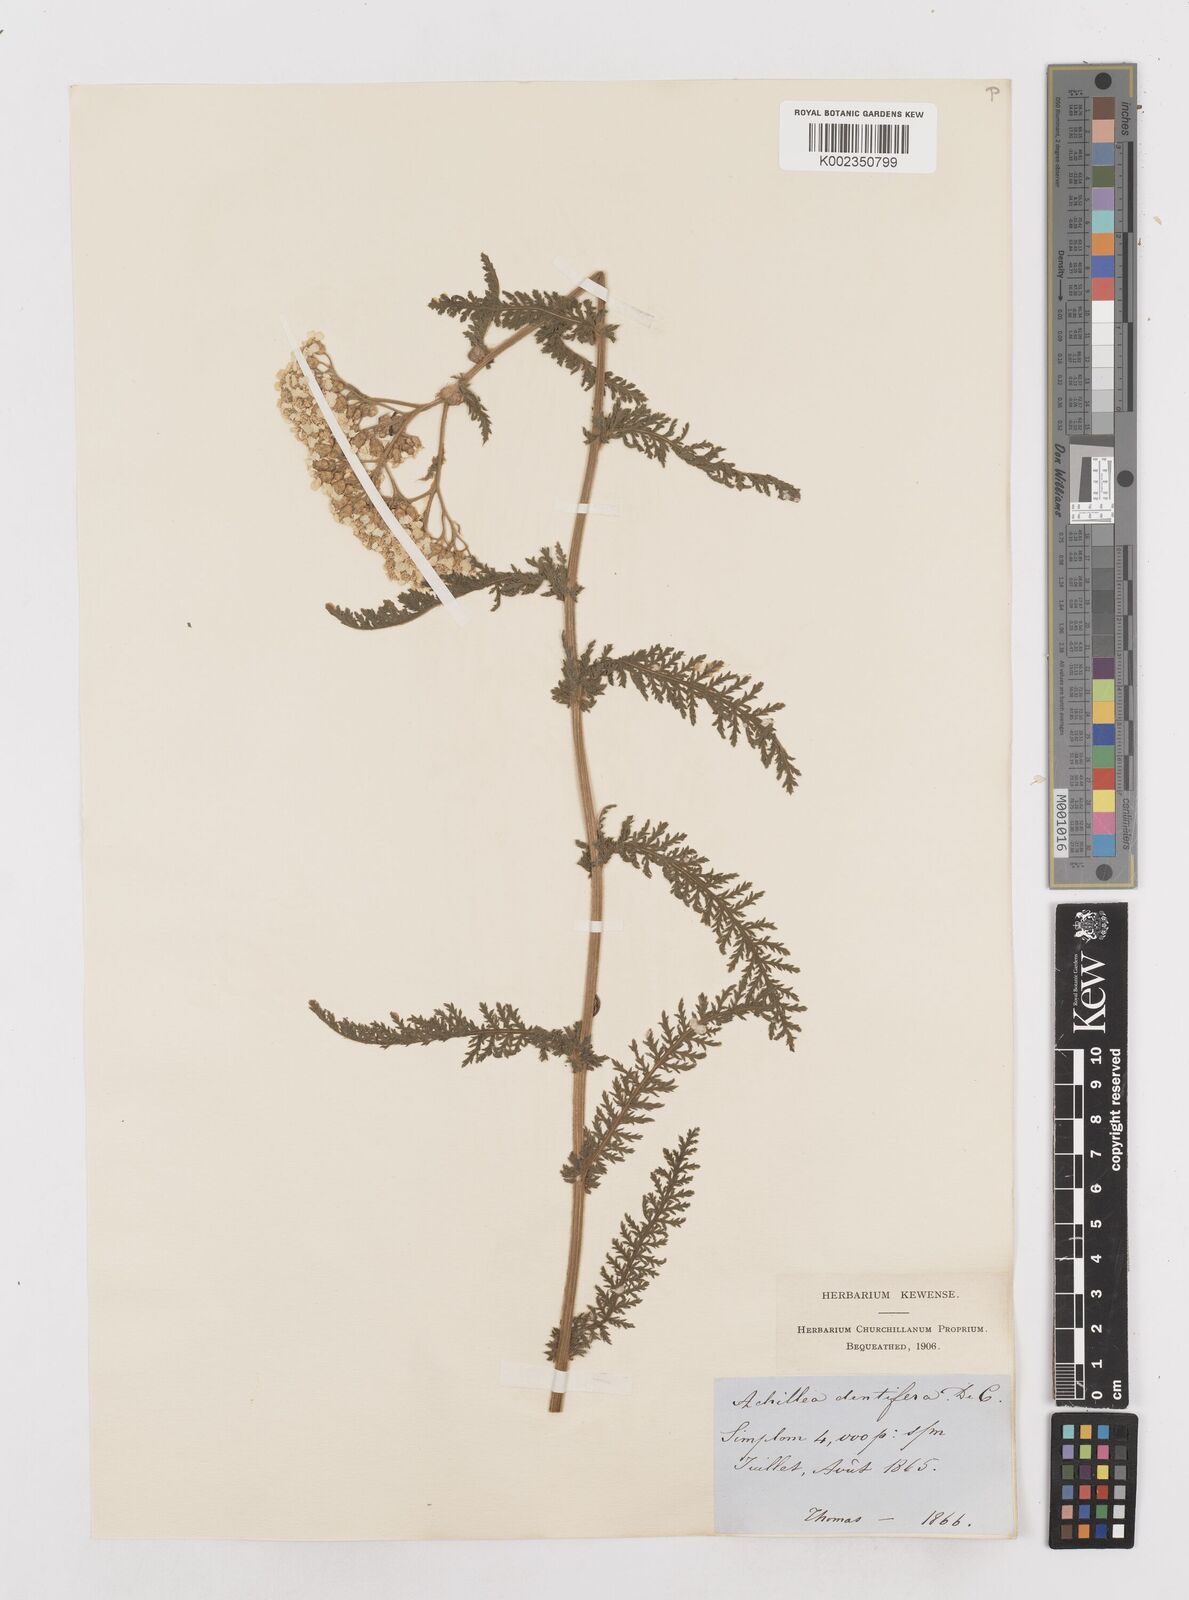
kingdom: Plantae
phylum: Tracheophyta
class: Magnoliopsida
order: Asterales
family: Asteraceae
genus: Achillea
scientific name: Achillea distans
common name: Tall yarrow
